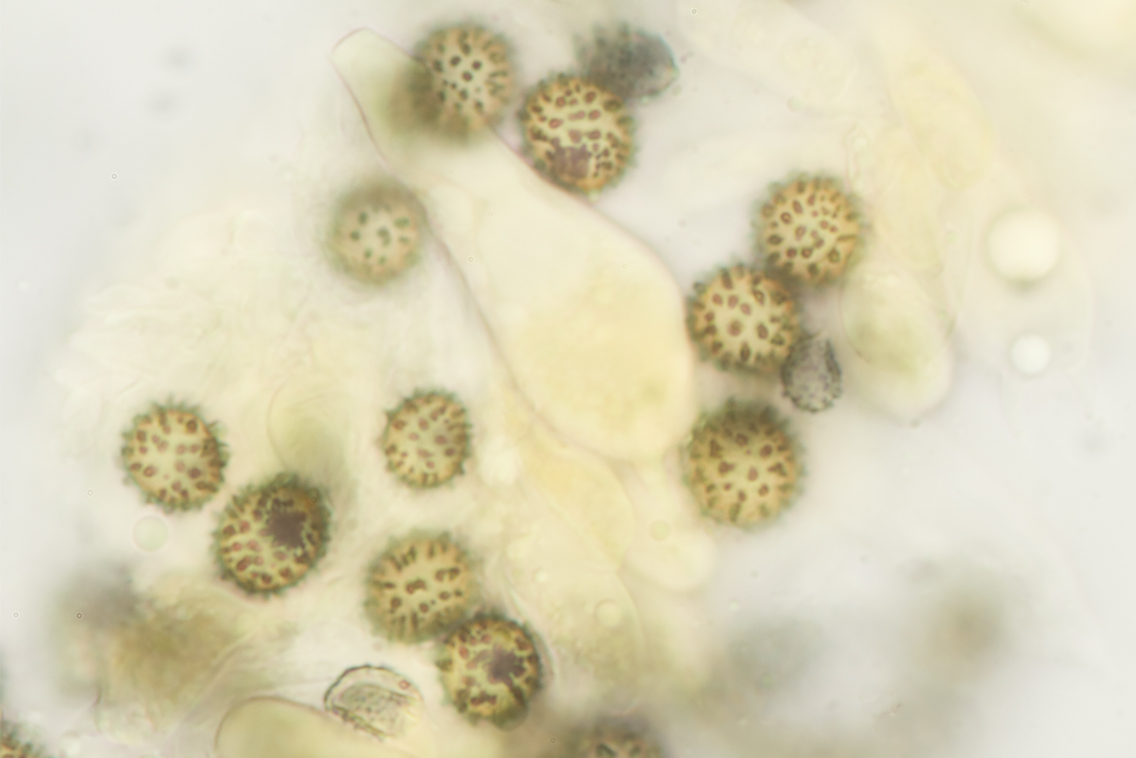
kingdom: Fungi
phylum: Basidiomycota
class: Agaricomycetes
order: Russulales
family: Russulaceae
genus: Russula
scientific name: Russula maculata
